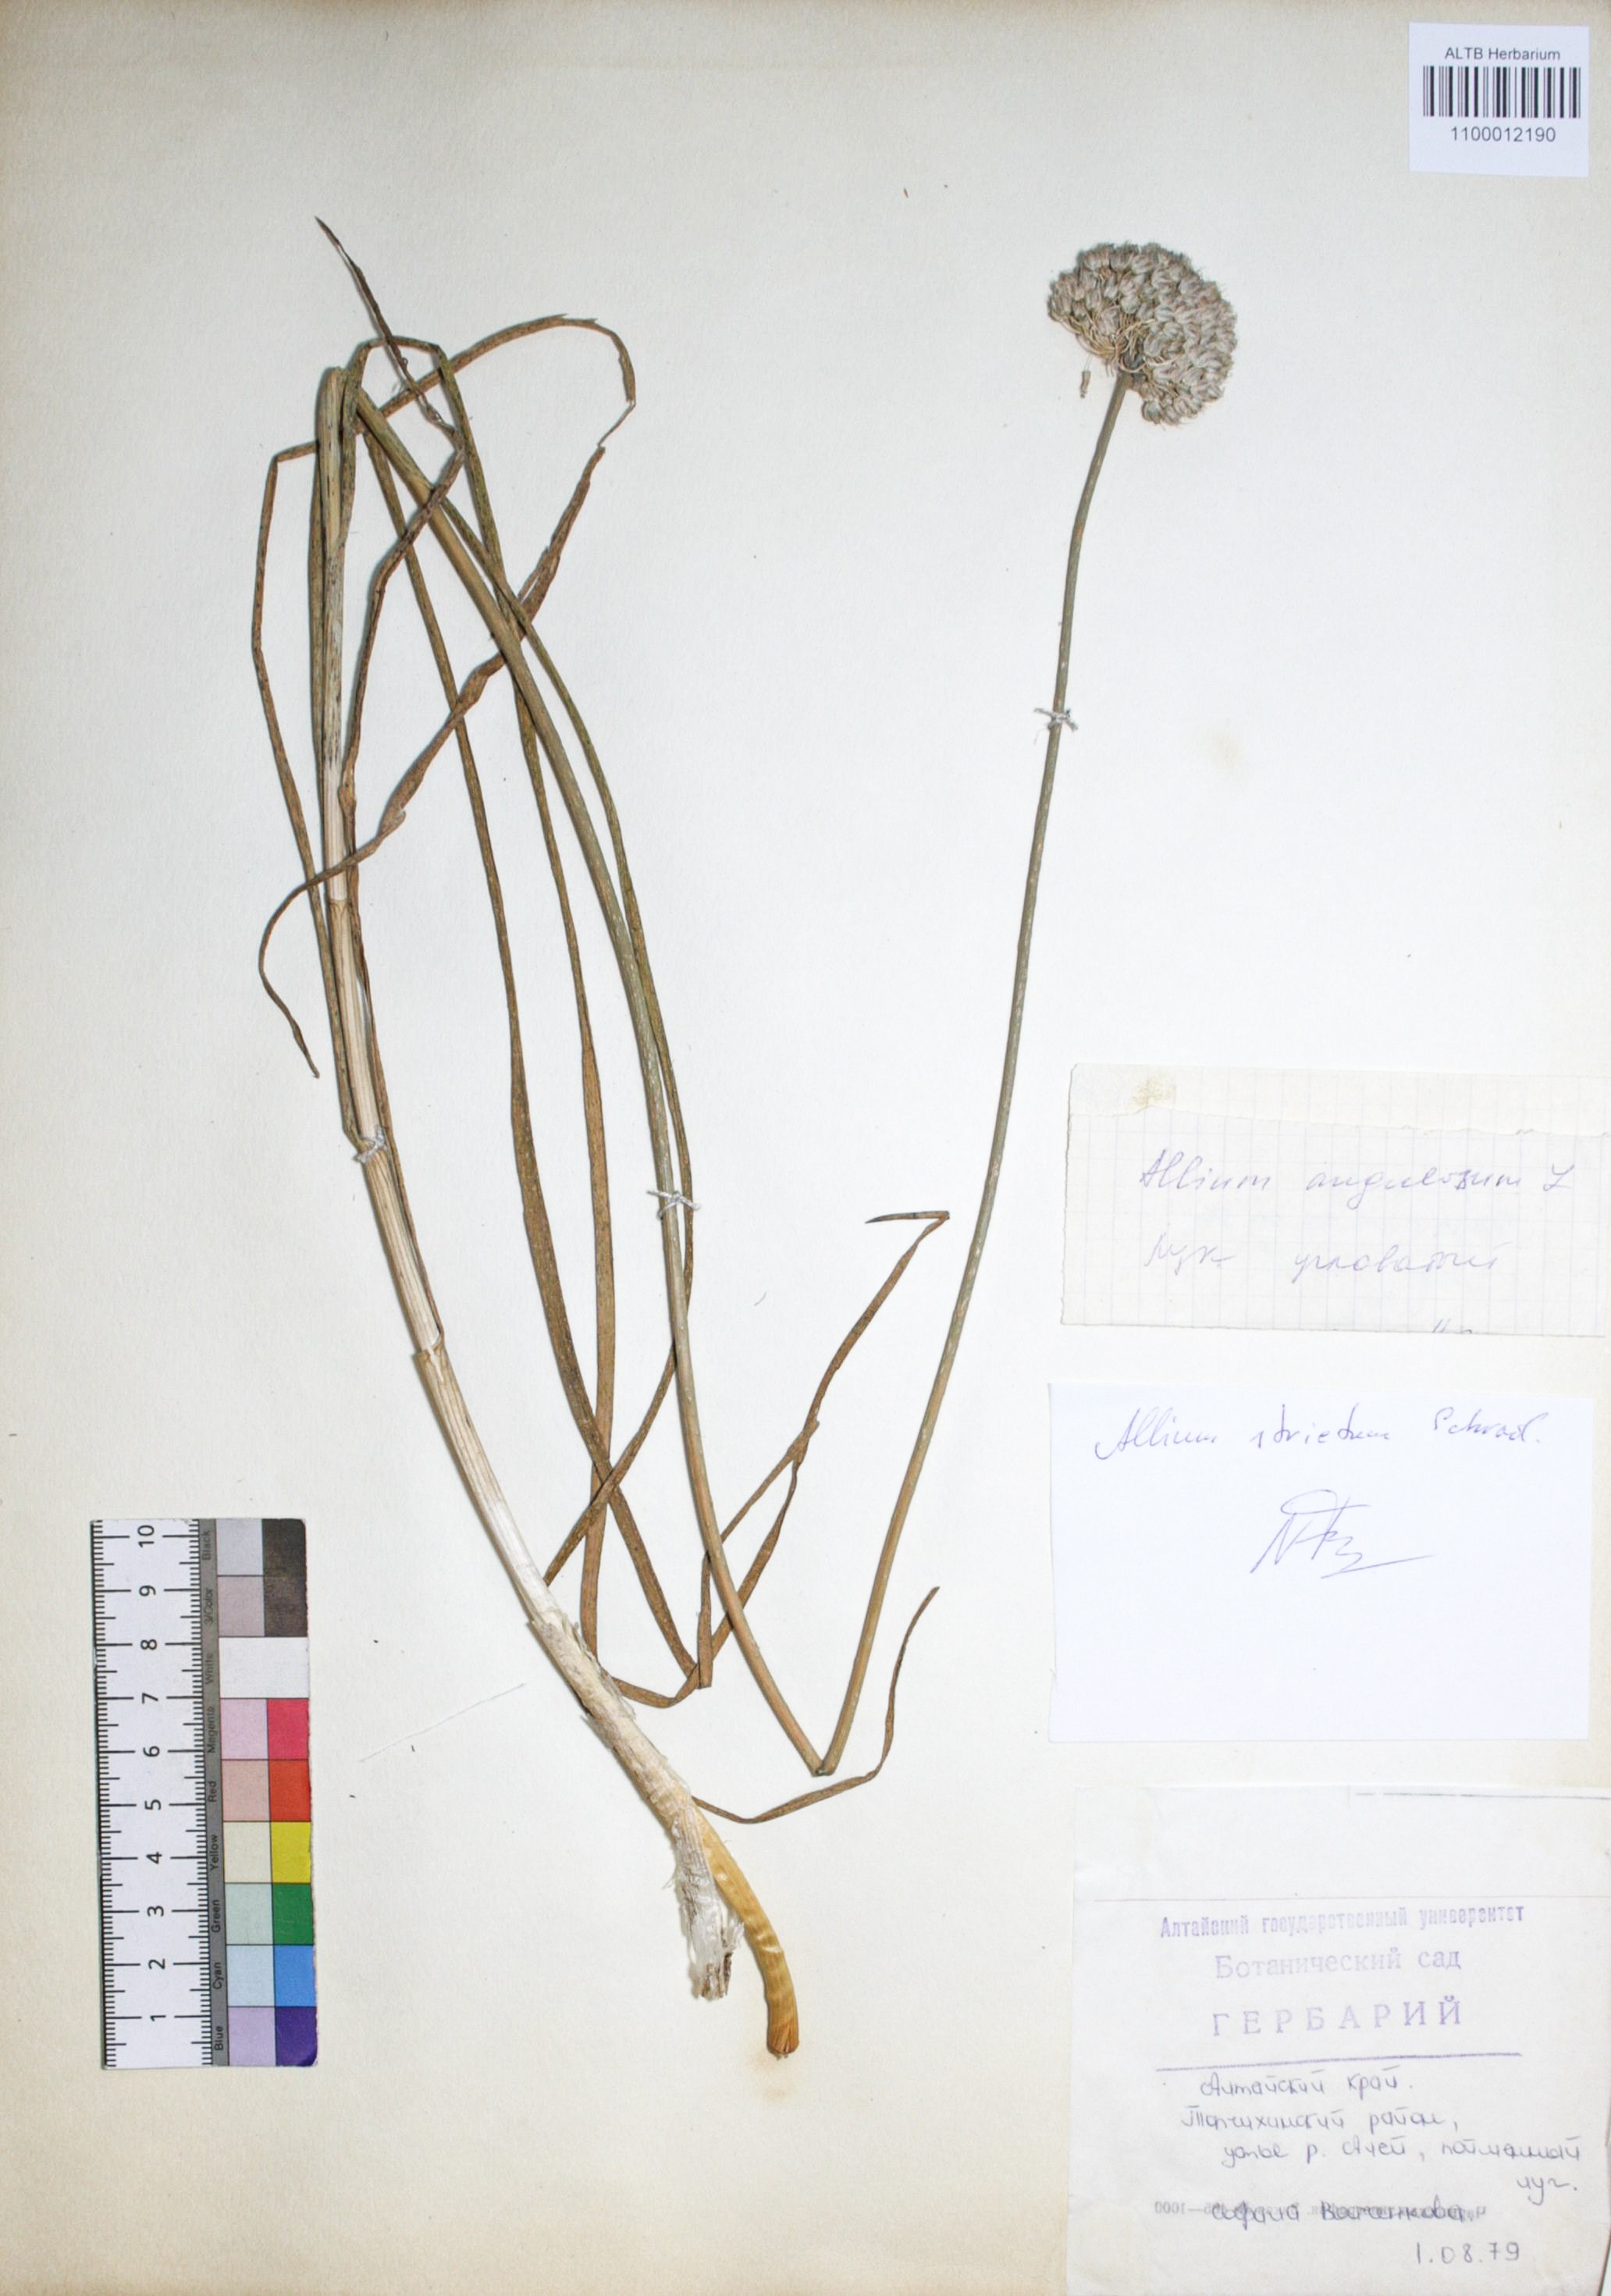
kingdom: Plantae
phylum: Tracheophyta
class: Liliopsida
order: Asparagales
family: Amaryllidaceae
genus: Allium
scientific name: Allium angulosum
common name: Mouse garlic
